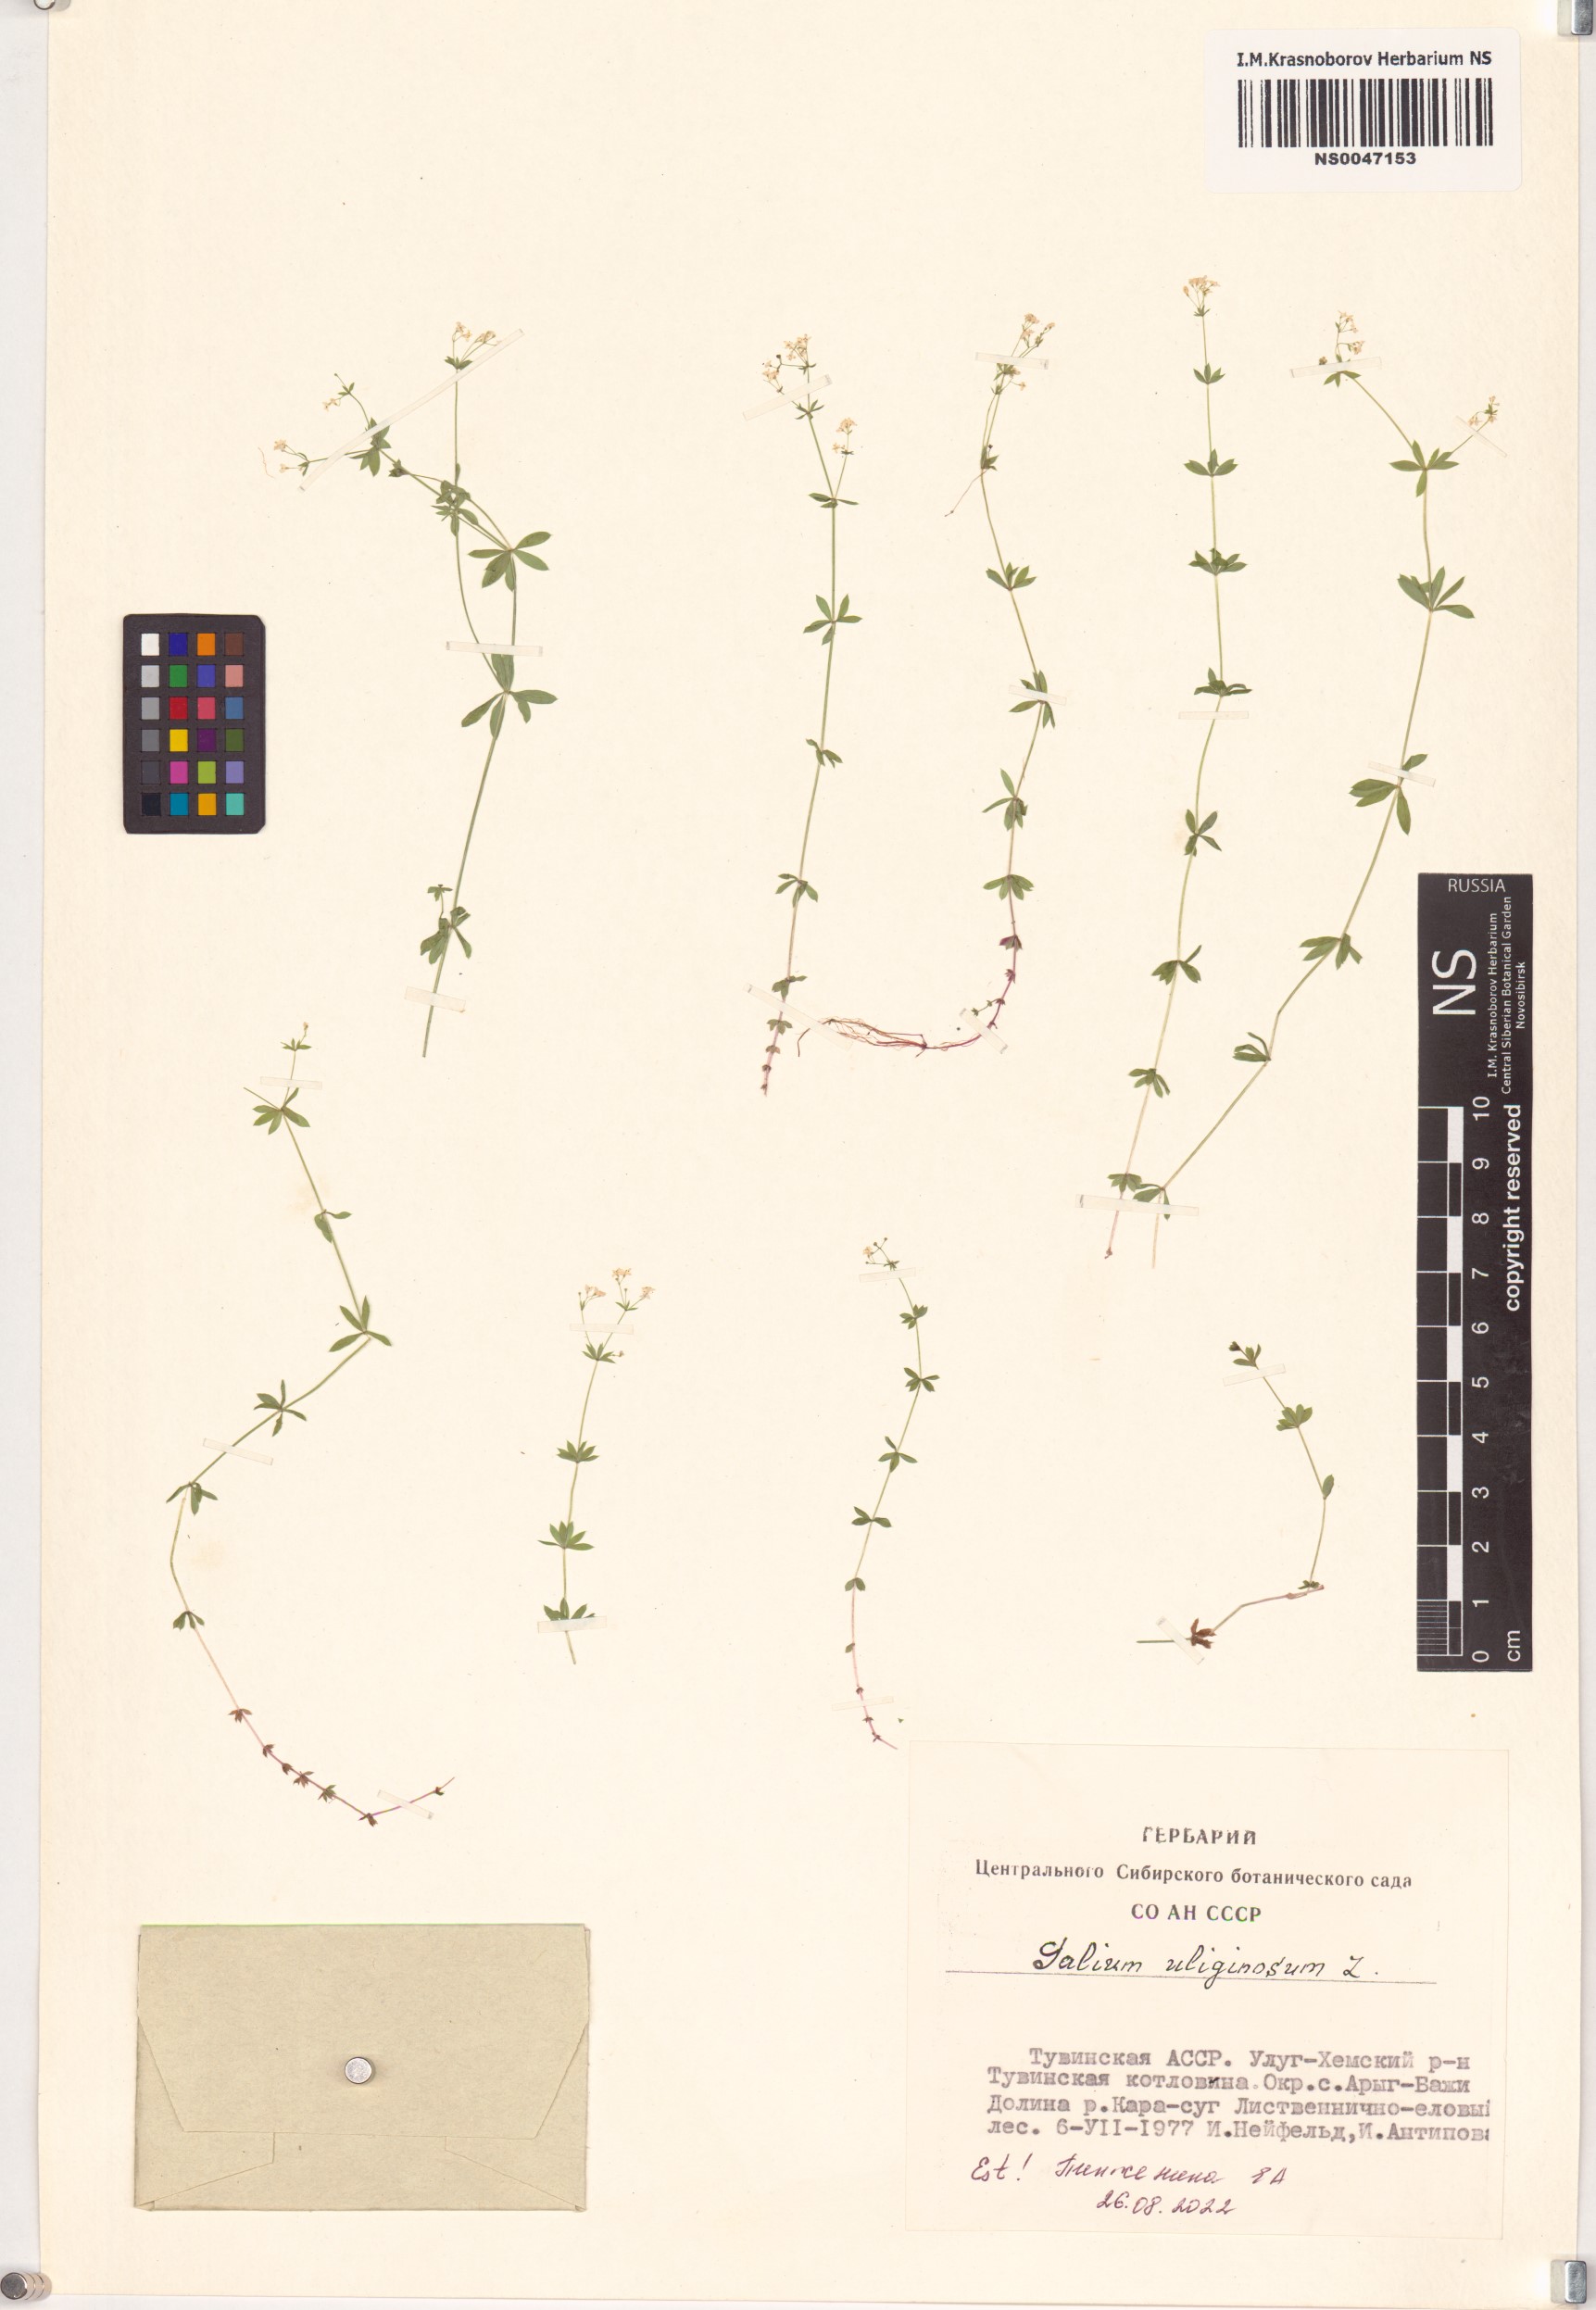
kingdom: Plantae
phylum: Tracheophyta
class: Magnoliopsida
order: Gentianales
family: Rubiaceae
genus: Galium
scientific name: Galium uliginosum
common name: Fen bedstraw
